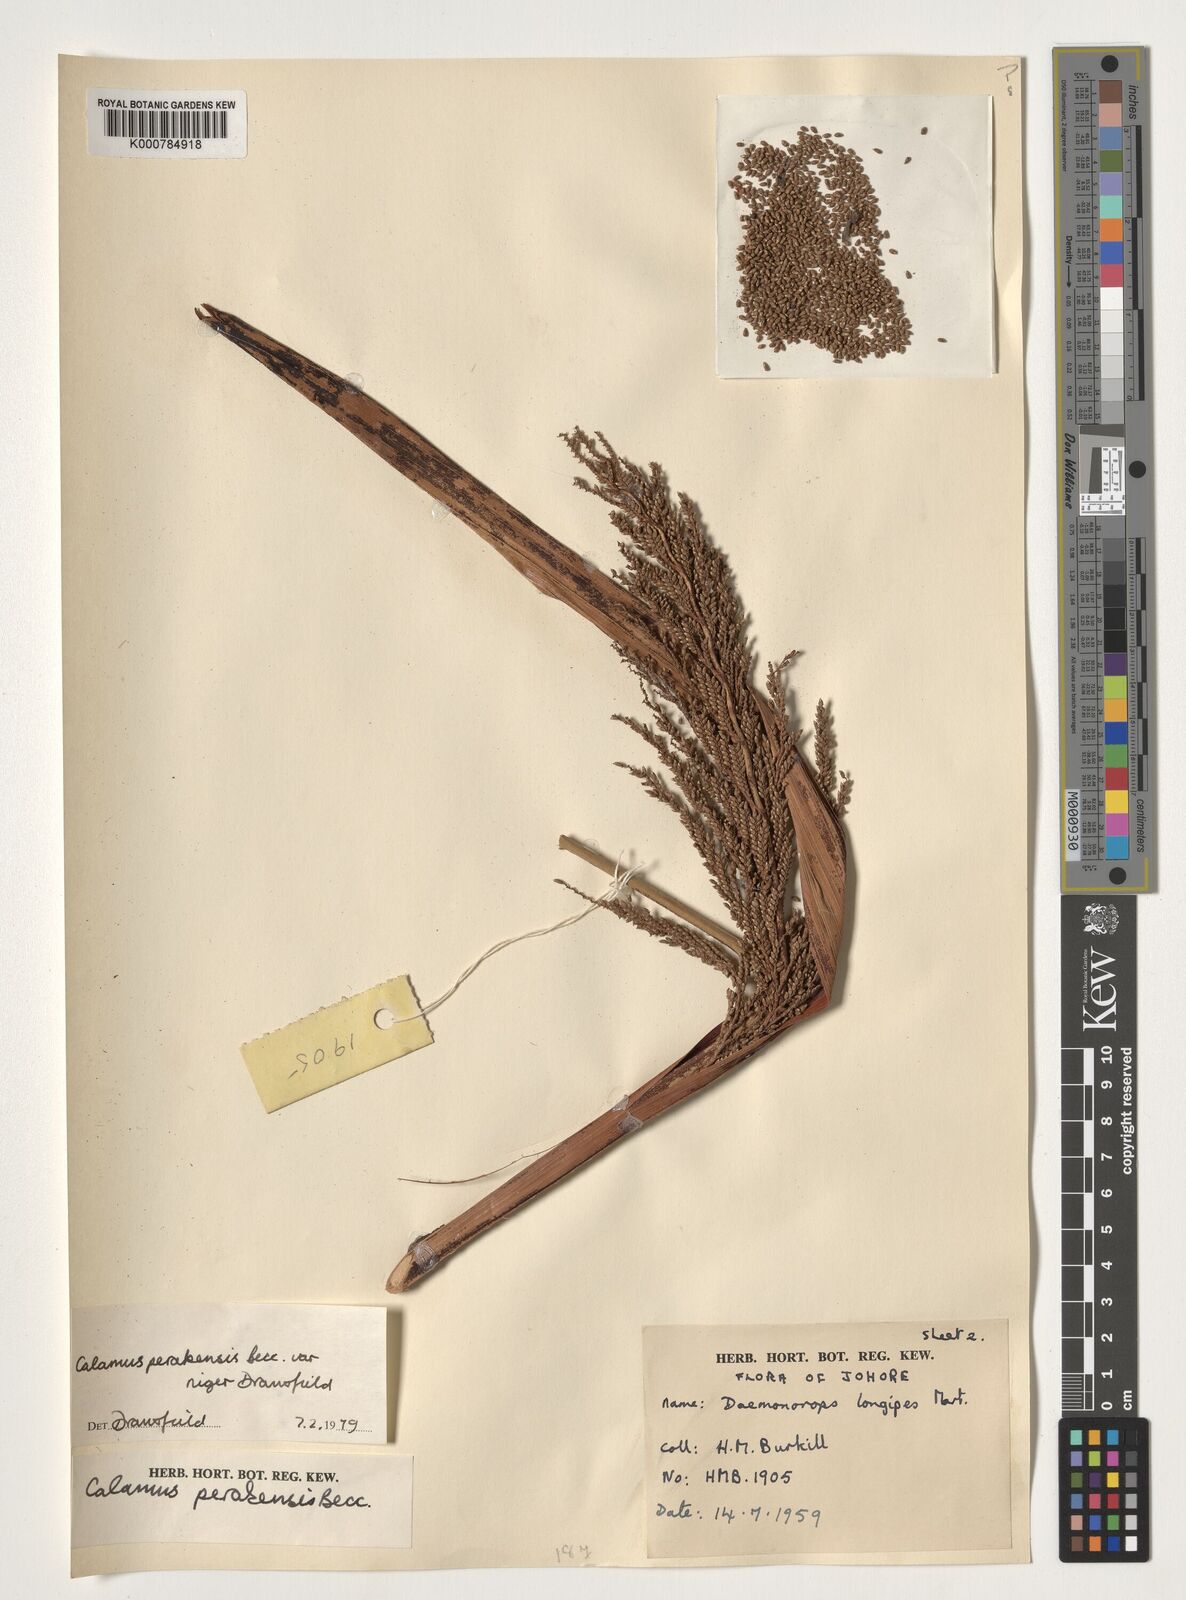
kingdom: Plantae
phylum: Tracheophyta
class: Liliopsida
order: Arecales
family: Arecaceae
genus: Calamus
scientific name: Calamus perakensis
